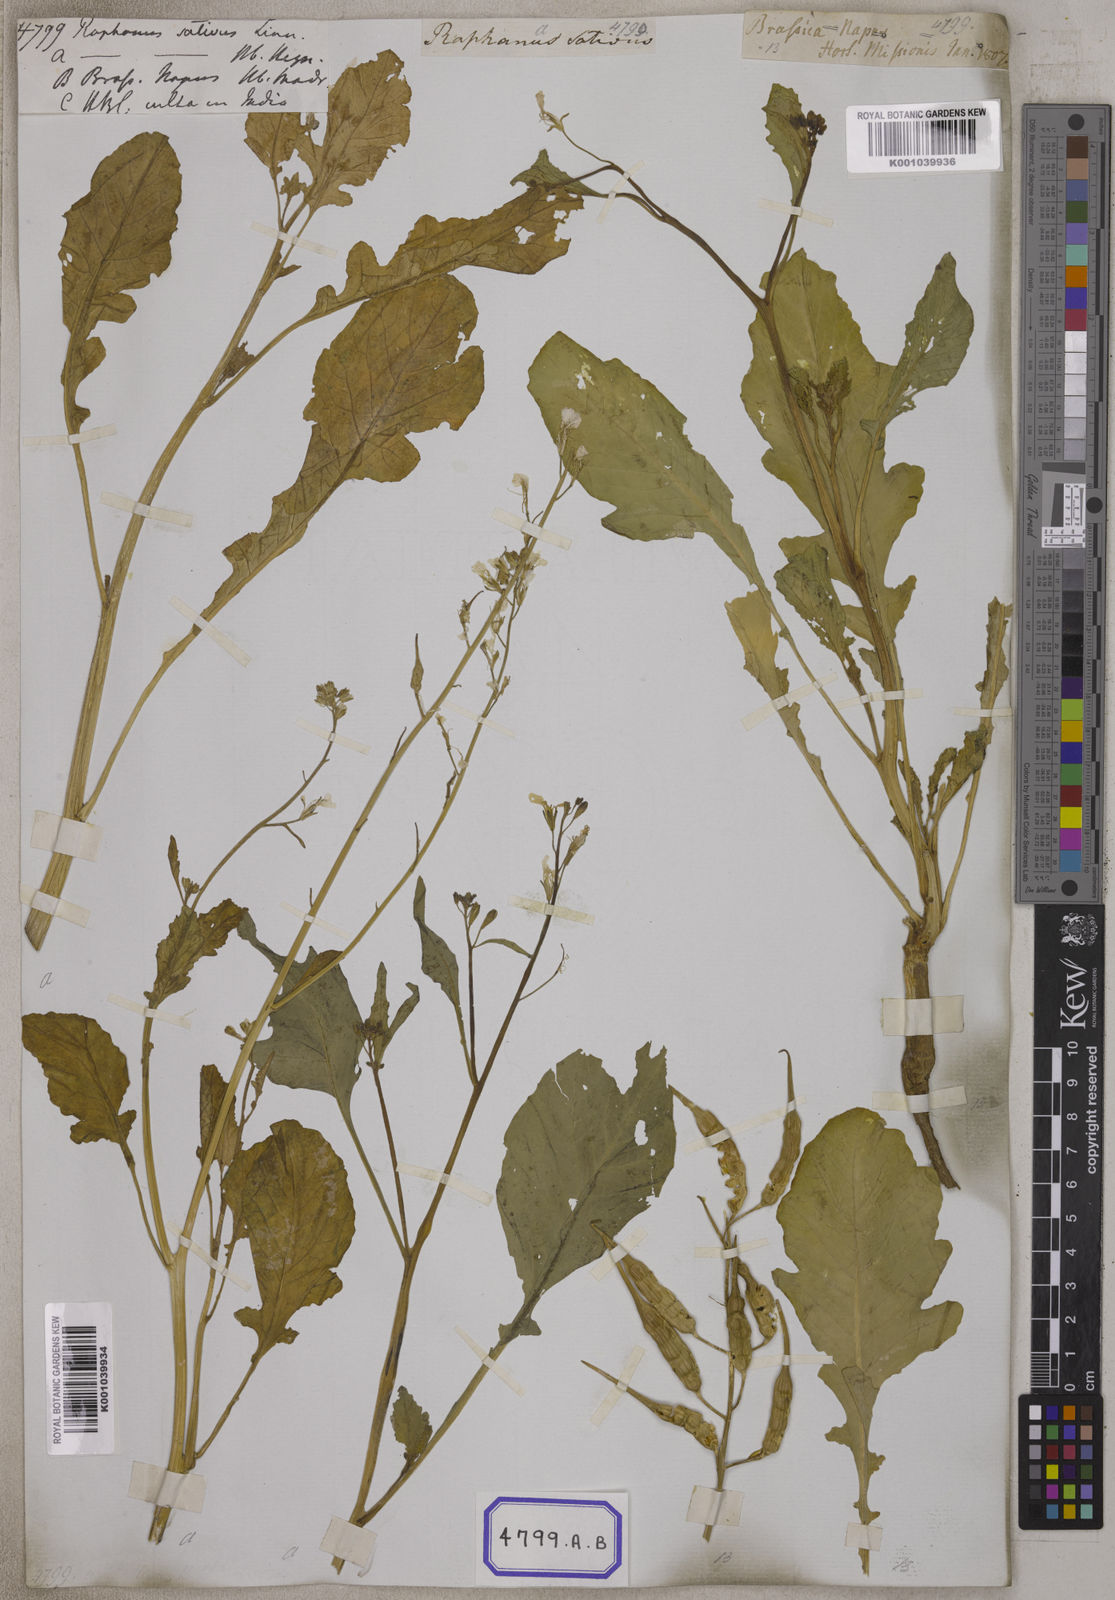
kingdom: Plantae
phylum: Tracheophyta
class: Magnoliopsida
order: Brassicales
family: Brassicaceae
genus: Raphanus
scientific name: Raphanus sativus
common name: Cultivated radish
